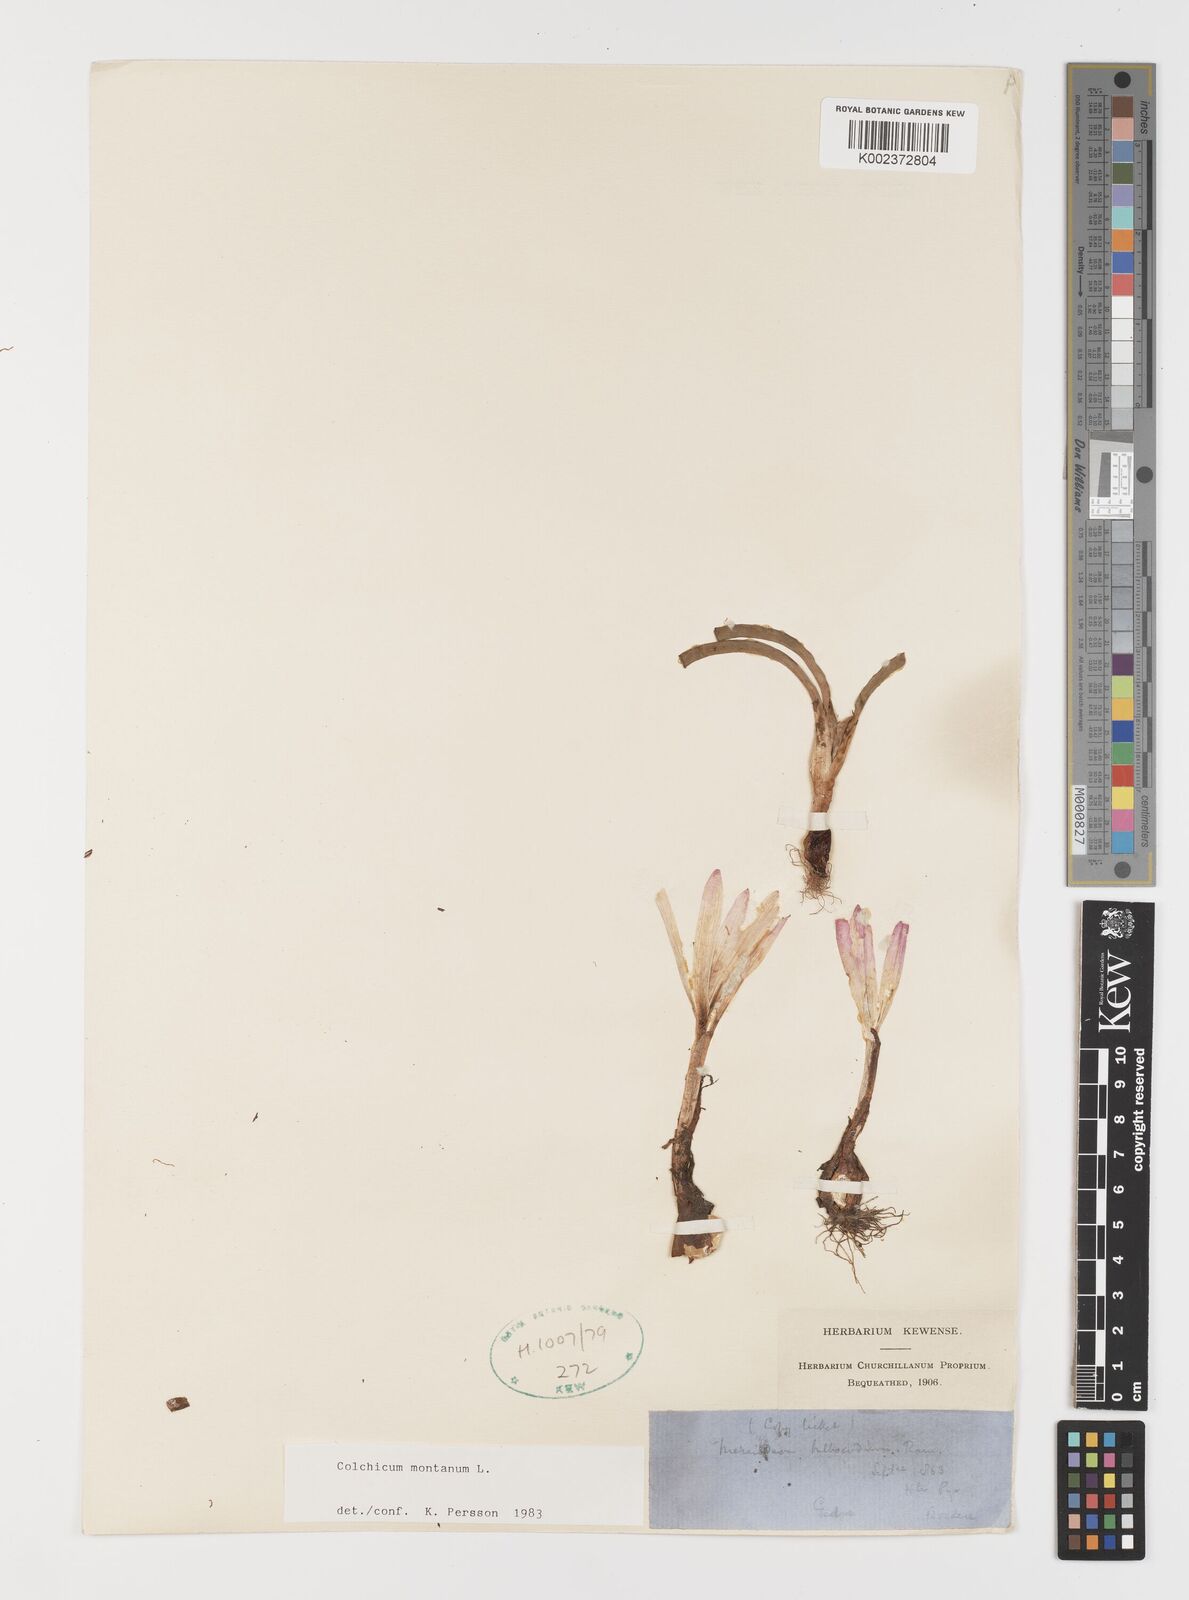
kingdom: Plantae
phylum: Tracheophyta
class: Liliopsida
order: Liliales
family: Colchicaceae
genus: Colchicum
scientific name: Colchicum montanum
